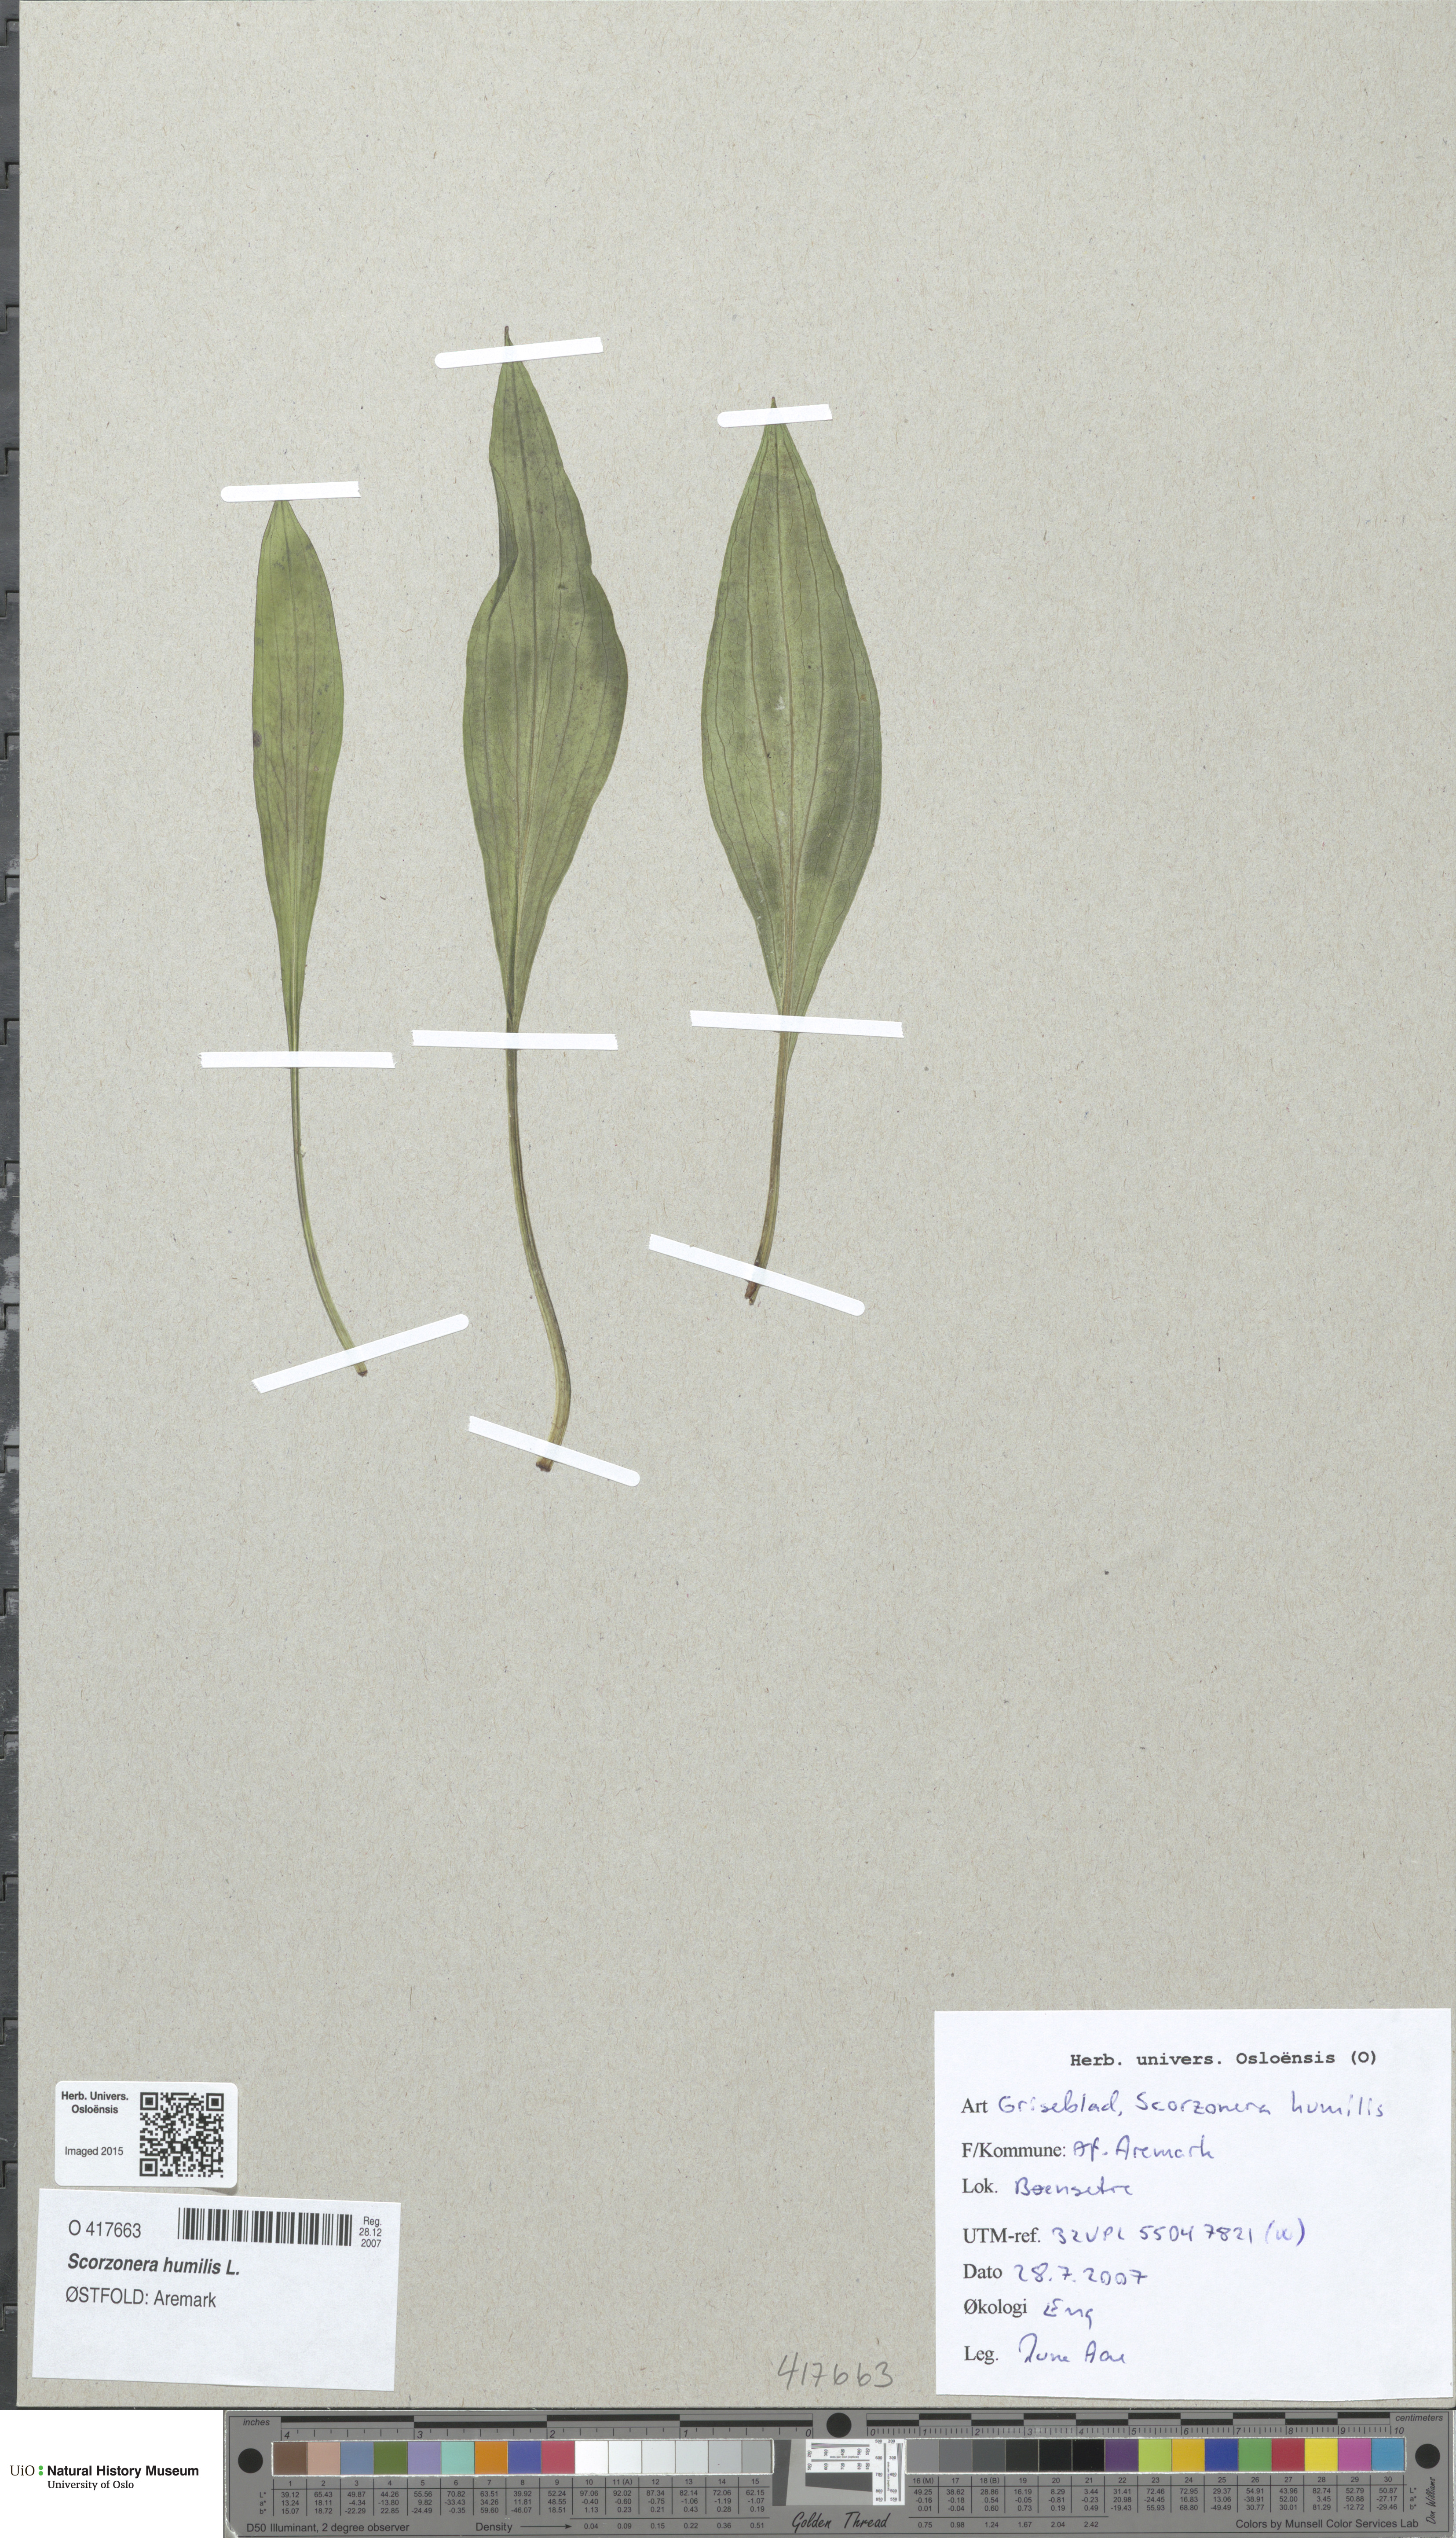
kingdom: Plantae
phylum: Tracheophyta
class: Magnoliopsida
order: Asterales
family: Asteraceae
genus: Scorzonera
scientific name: Scorzonera humilis
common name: Viper's-grass
